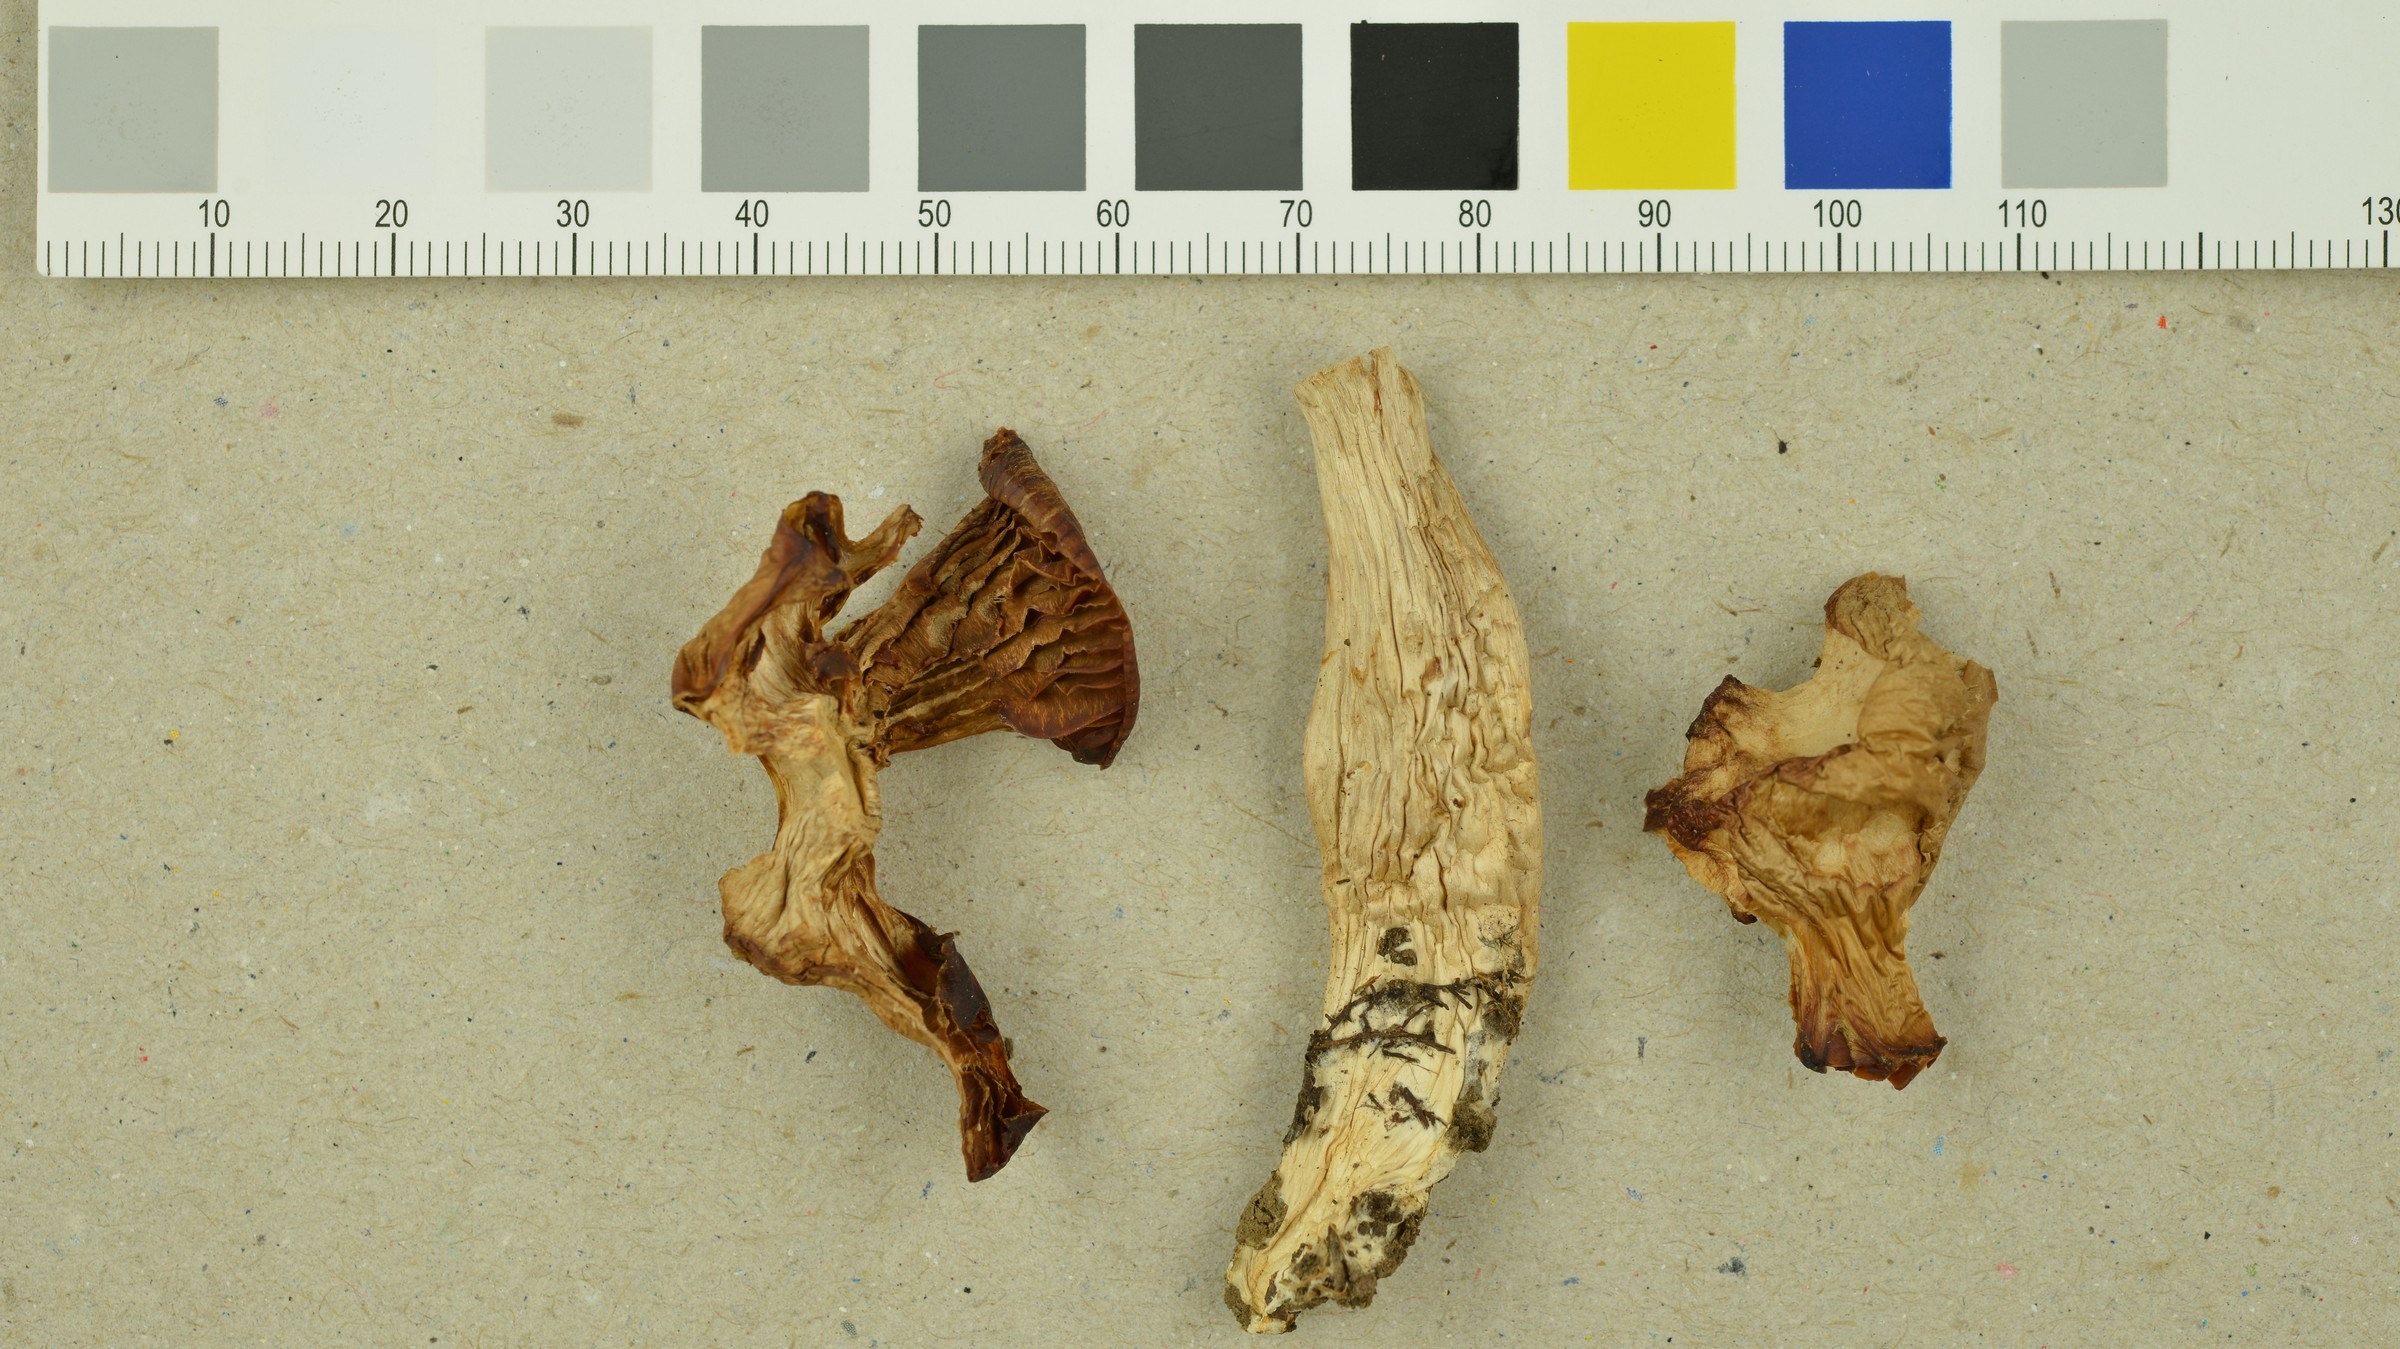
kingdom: Fungi
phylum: Basidiomycota
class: Agaricomycetes
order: Agaricales
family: Cortinariaceae
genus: Cortinarius
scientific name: Cortinarius cinnamoviolaceus
